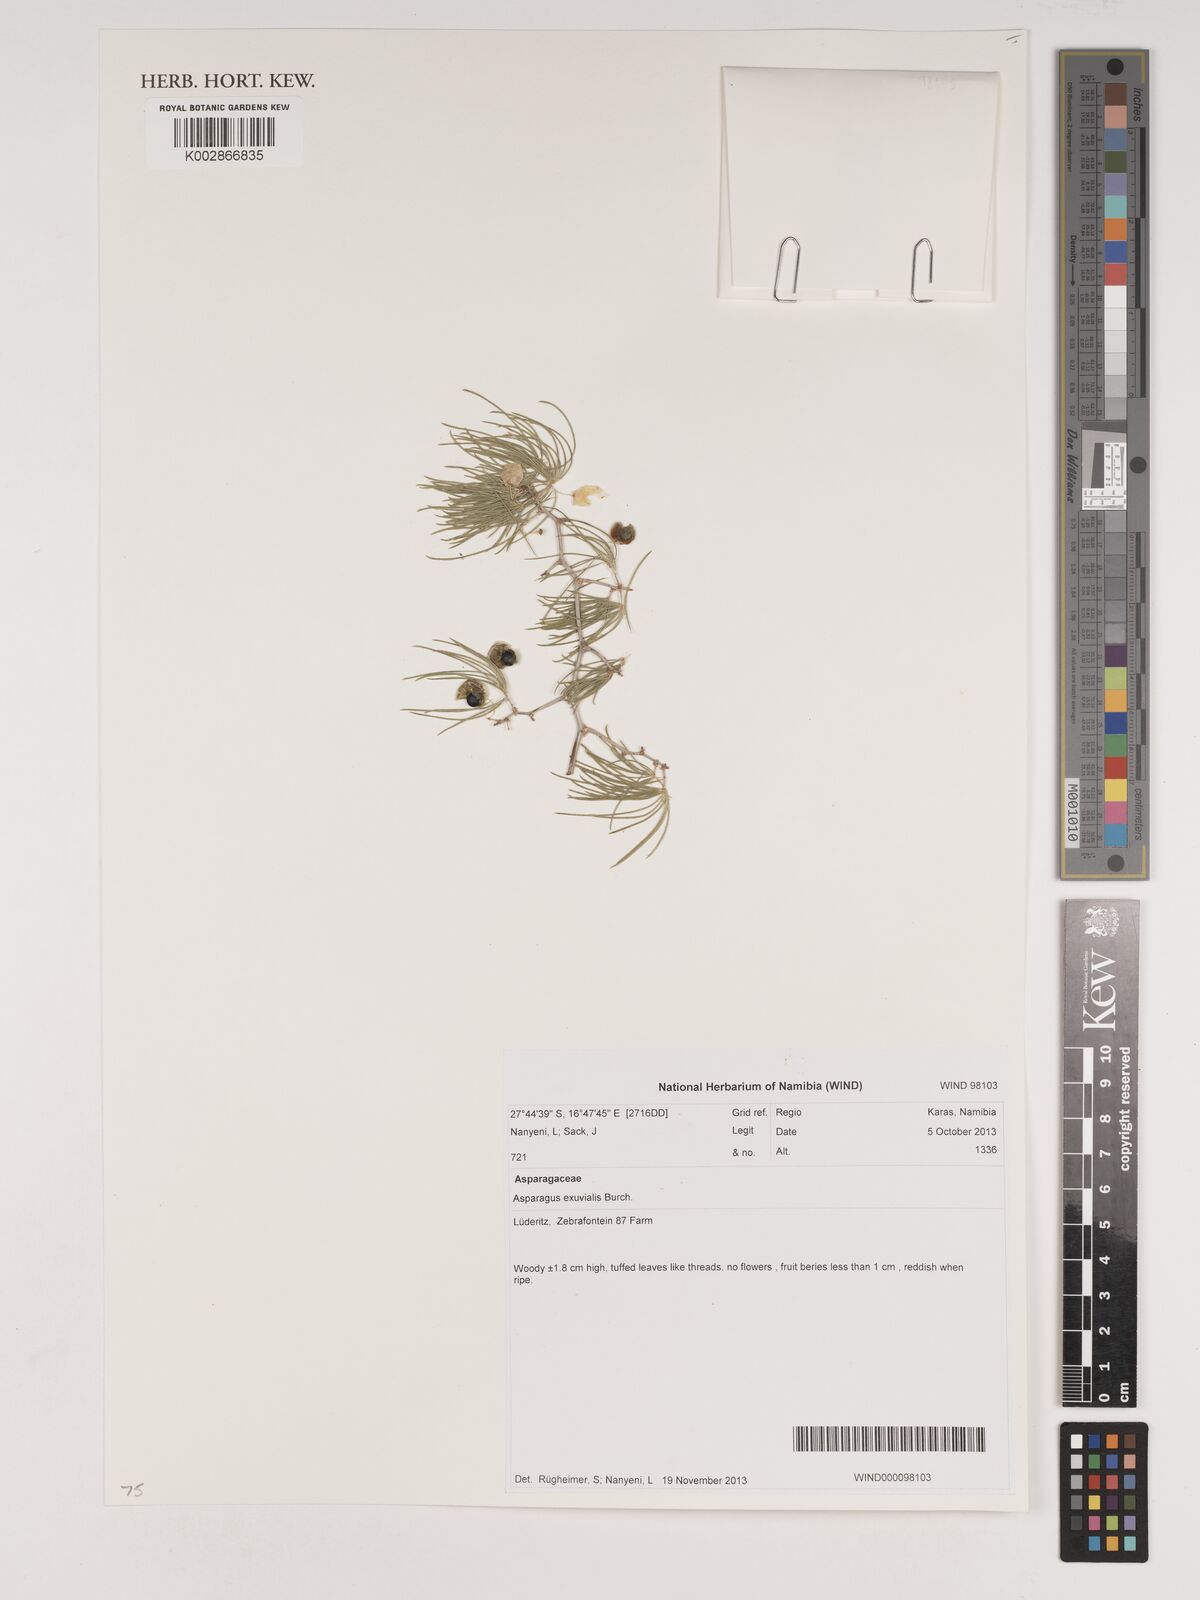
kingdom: Plantae
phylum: Tracheophyta
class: Liliopsida
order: Asparagales
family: Asparagaceae
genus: Asparagus
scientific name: Asparagus exuvialis
